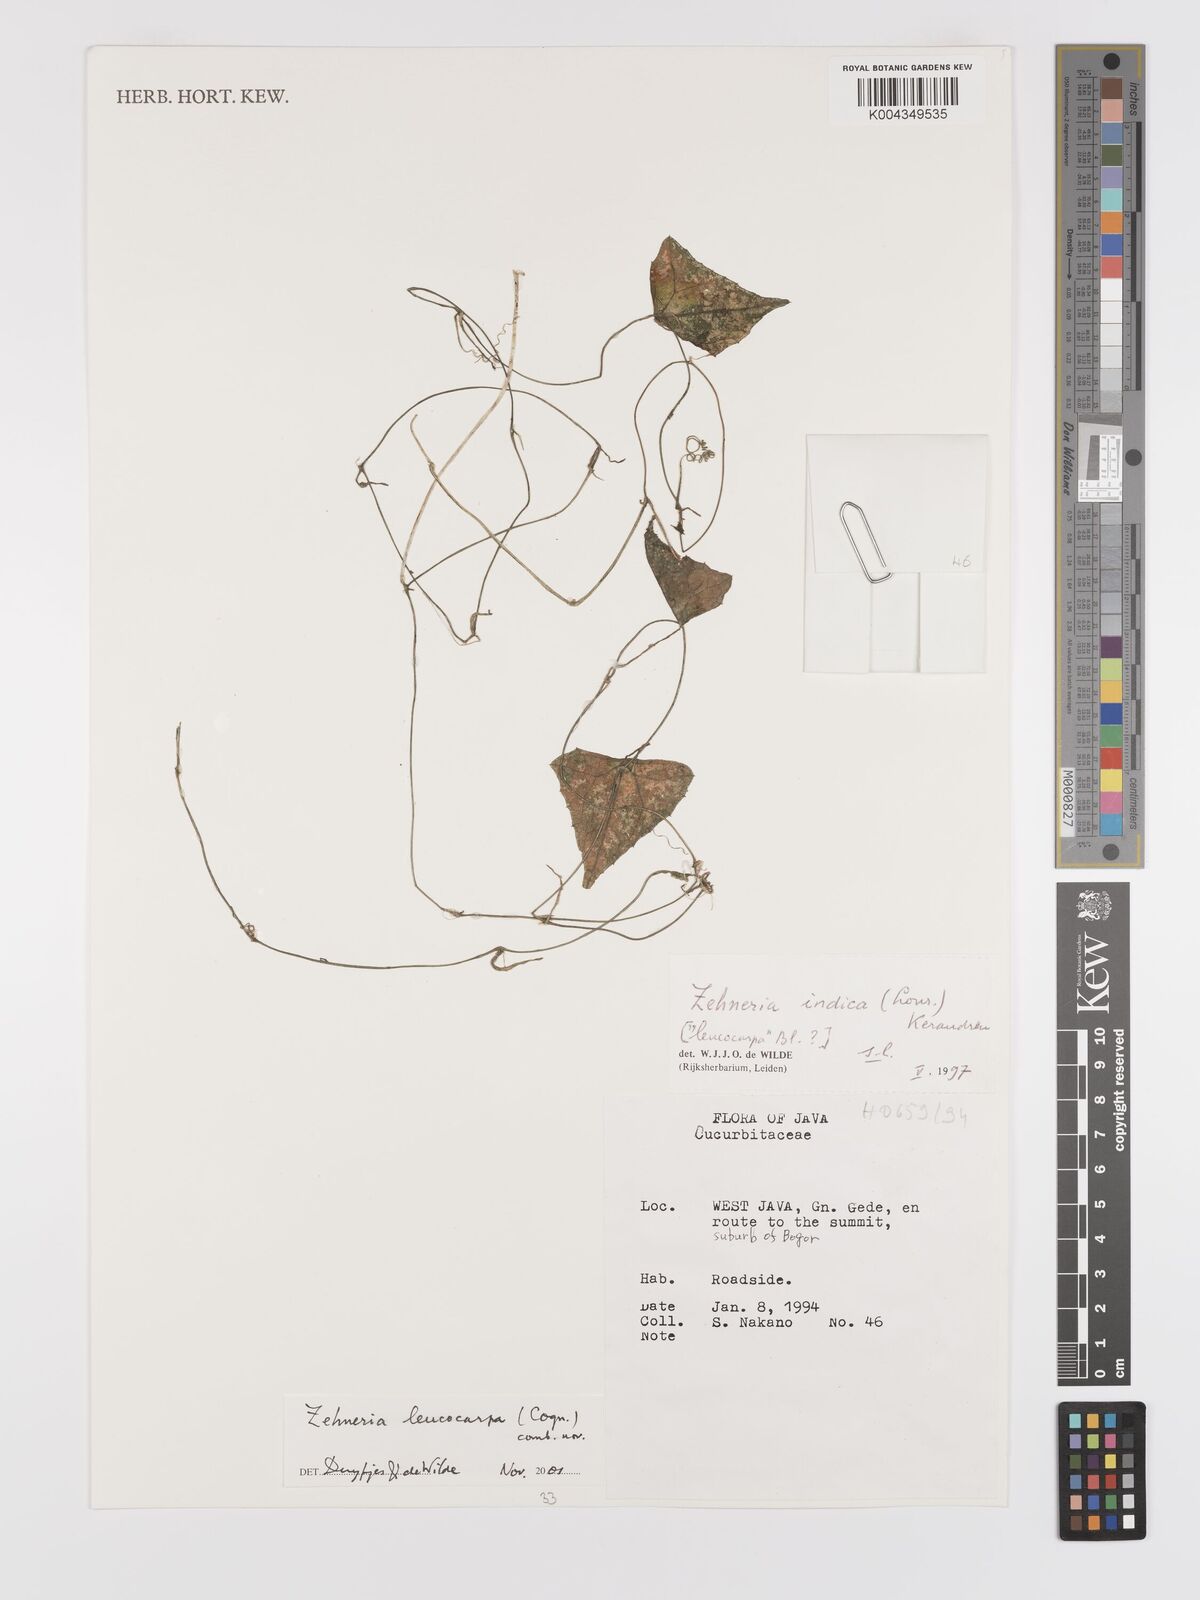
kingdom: Plantae
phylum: Tracheophyta
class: Magnoliopsida
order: Cucurbitales
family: Cucurbitaceae
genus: Zehneria
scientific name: Zehneria leucocarpa
